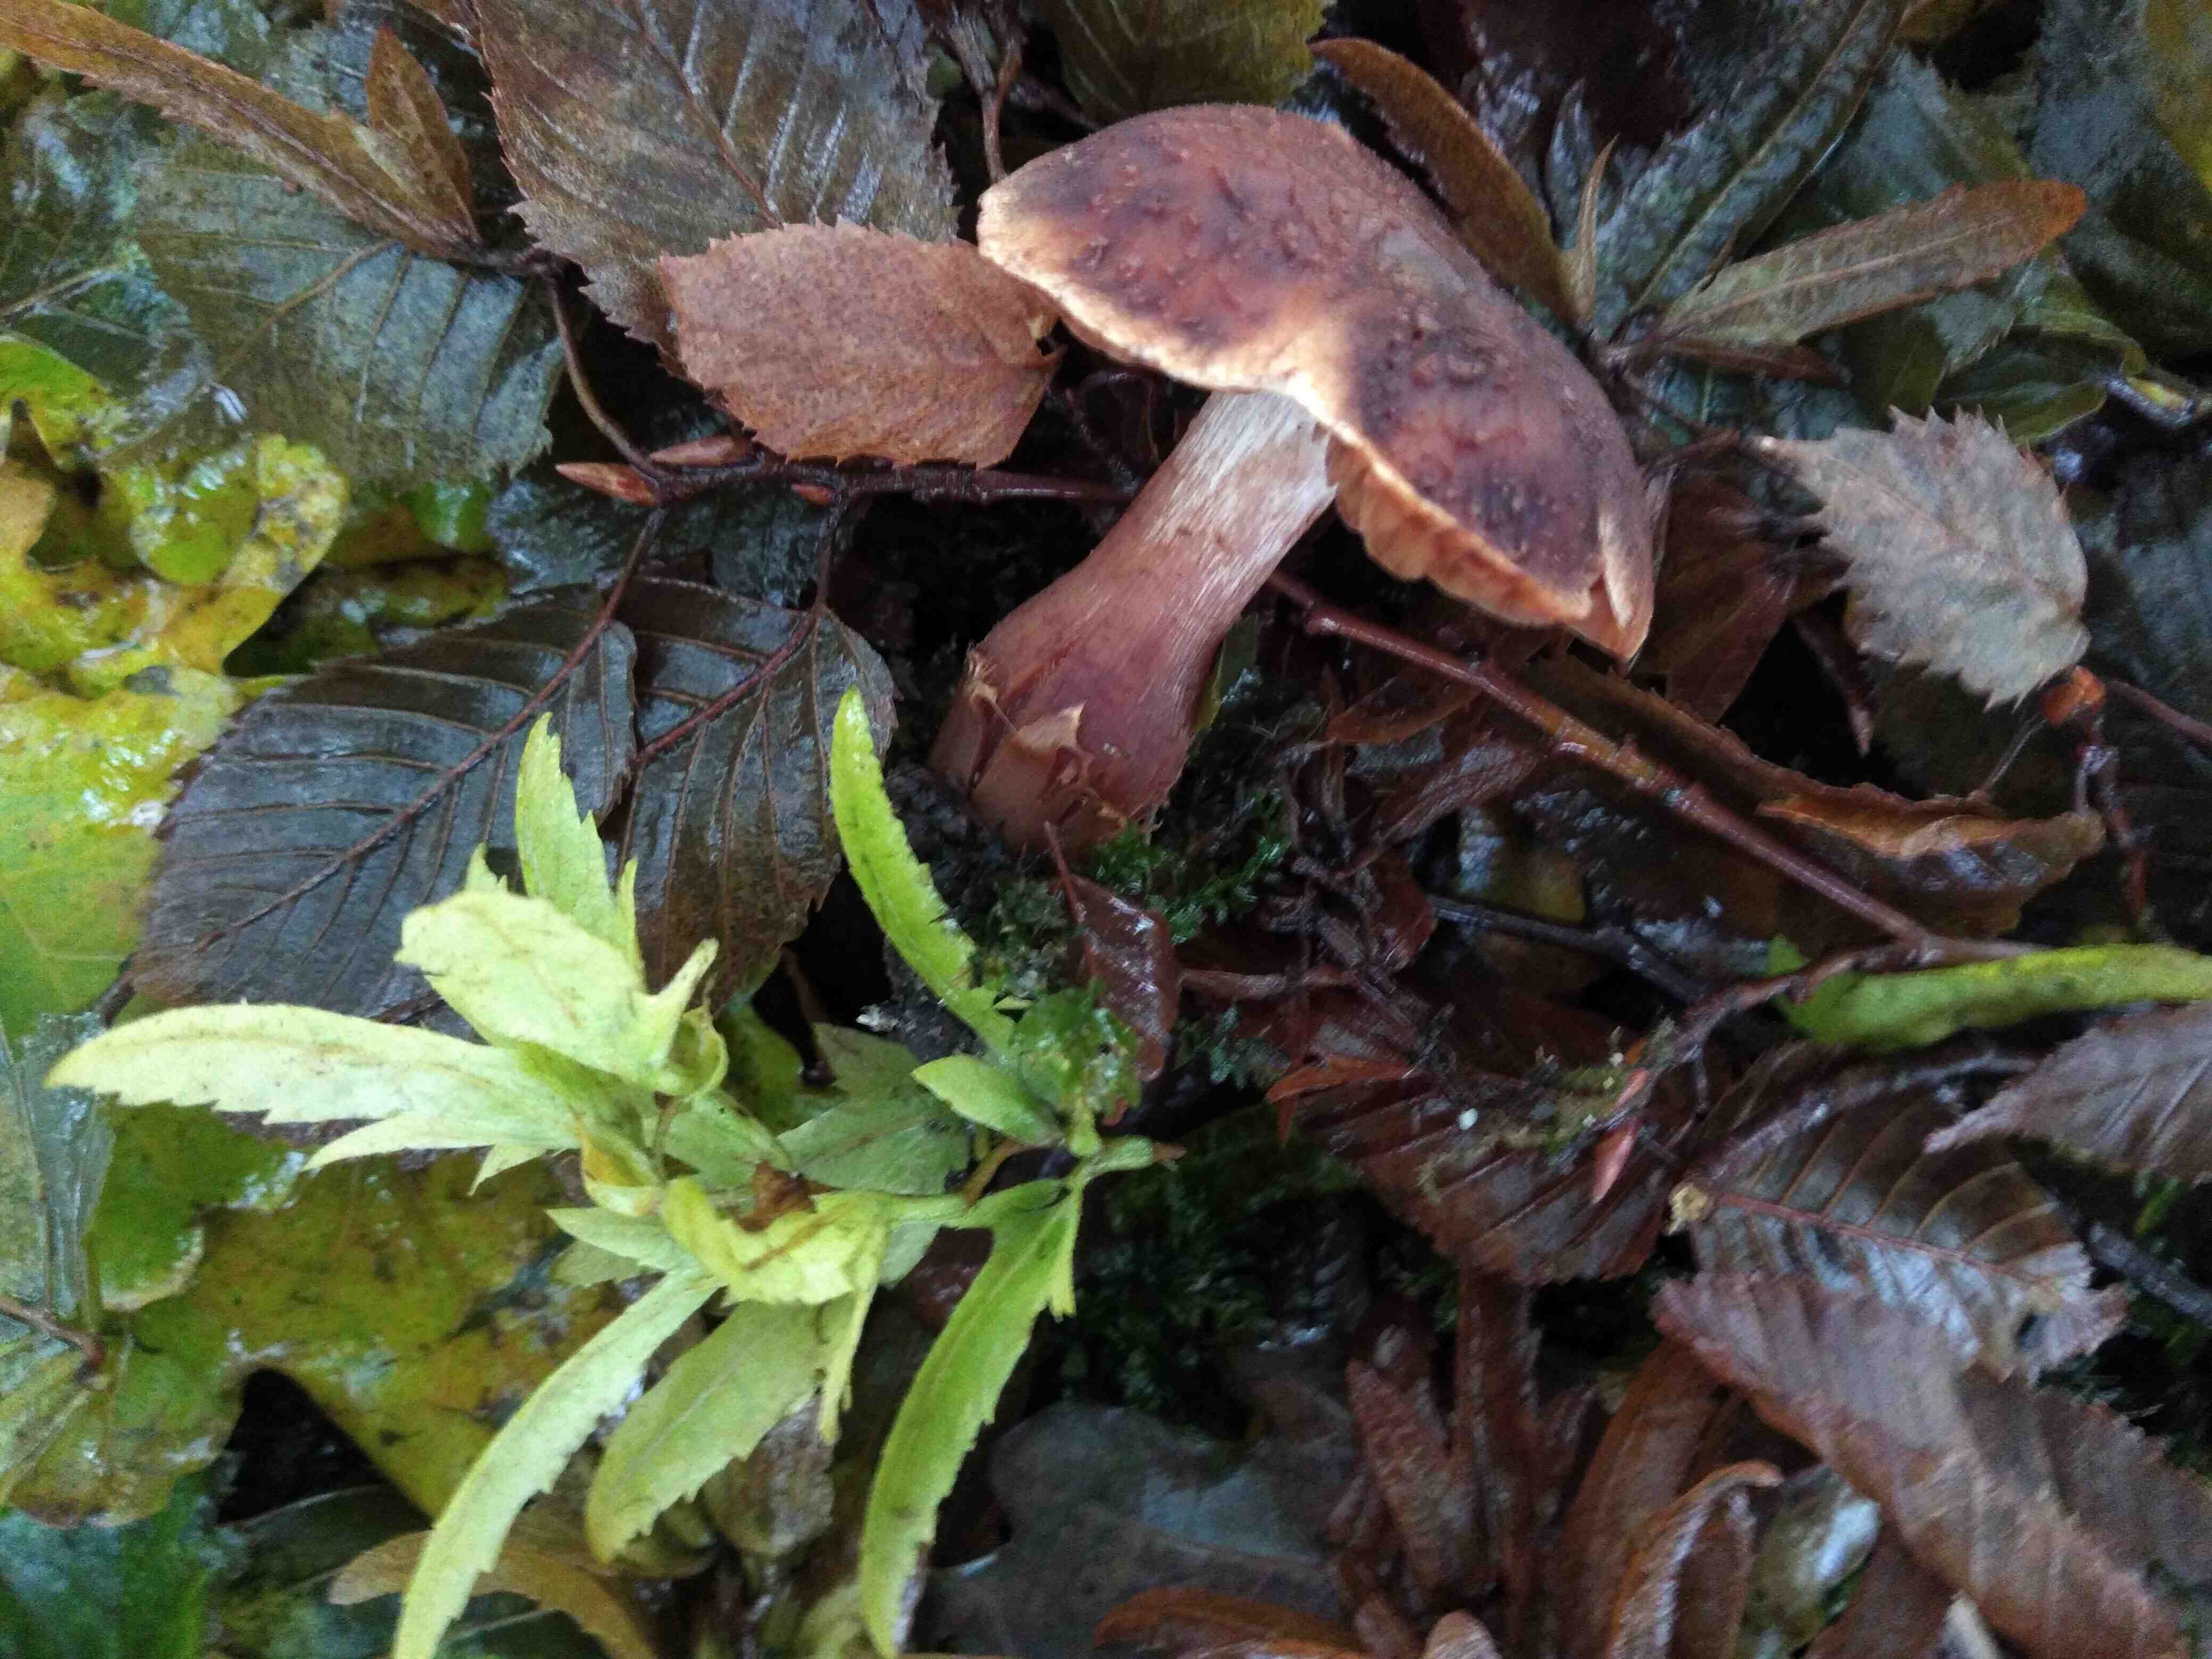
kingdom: Fungi
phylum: Basidiomycota
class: Agaricomycetes
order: Agaricales
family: Cortinariaceae
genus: Cortinarius
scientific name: Cortinarius hinnuleus
